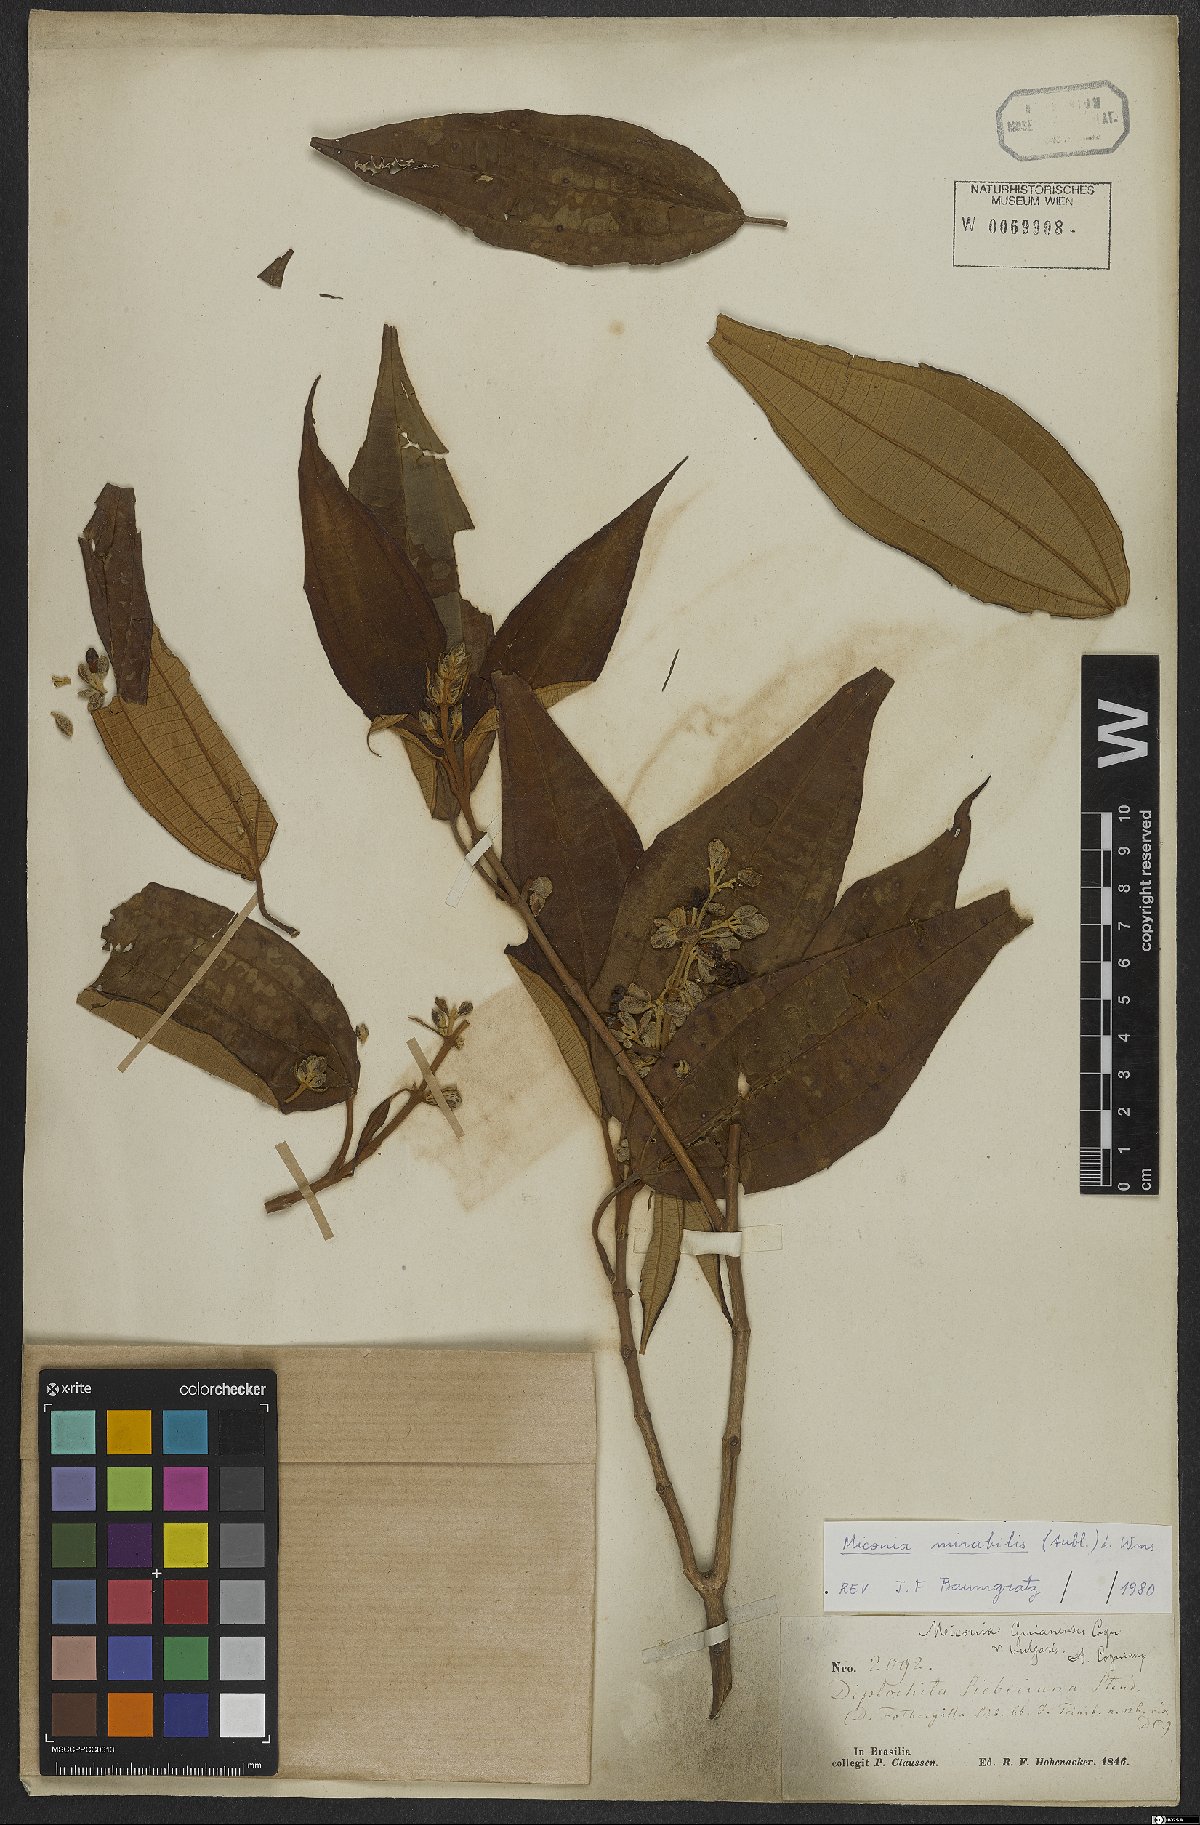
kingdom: Plantae
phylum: Tracheophyta
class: Magnoliopsida
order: Myrtales
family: Melastomataceae
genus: Miconia
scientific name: Miconia mirabilis
